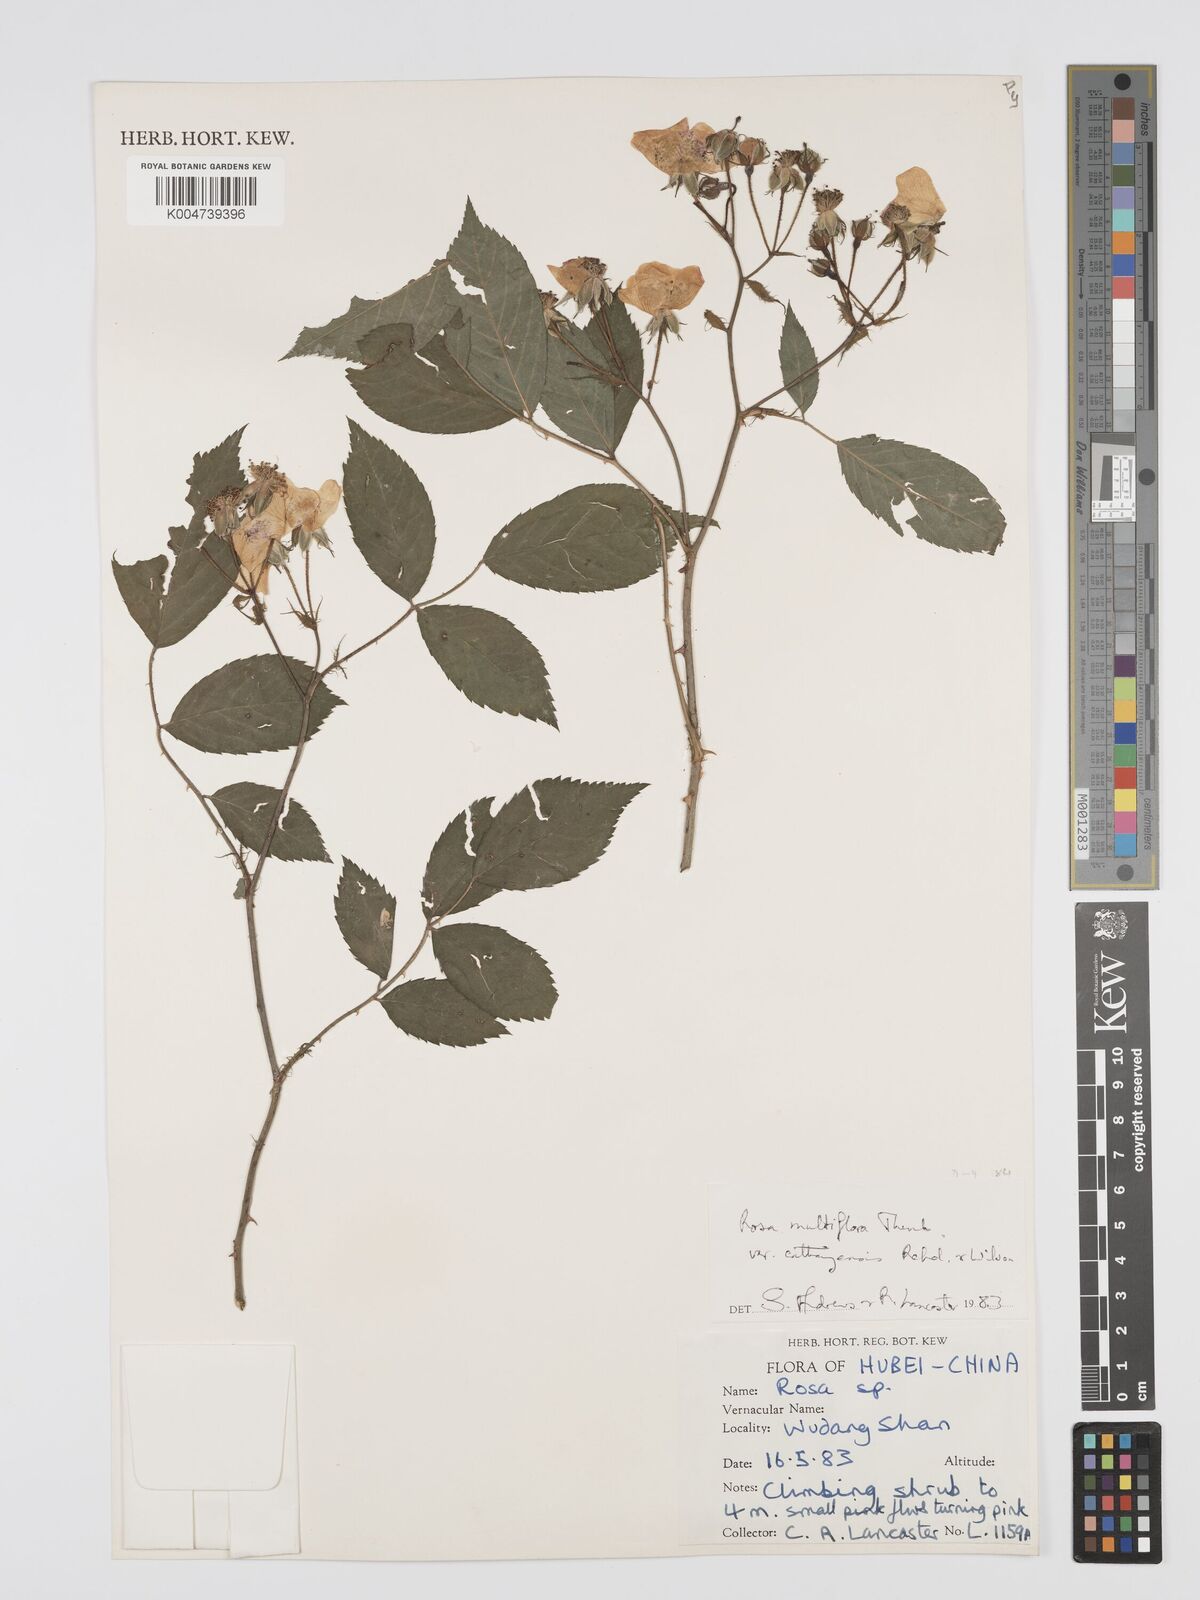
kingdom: Plantae
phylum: Tracheophyta
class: Magnoliopsida
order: Rosales
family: Rosaceae
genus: Rosa
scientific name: Rosa
